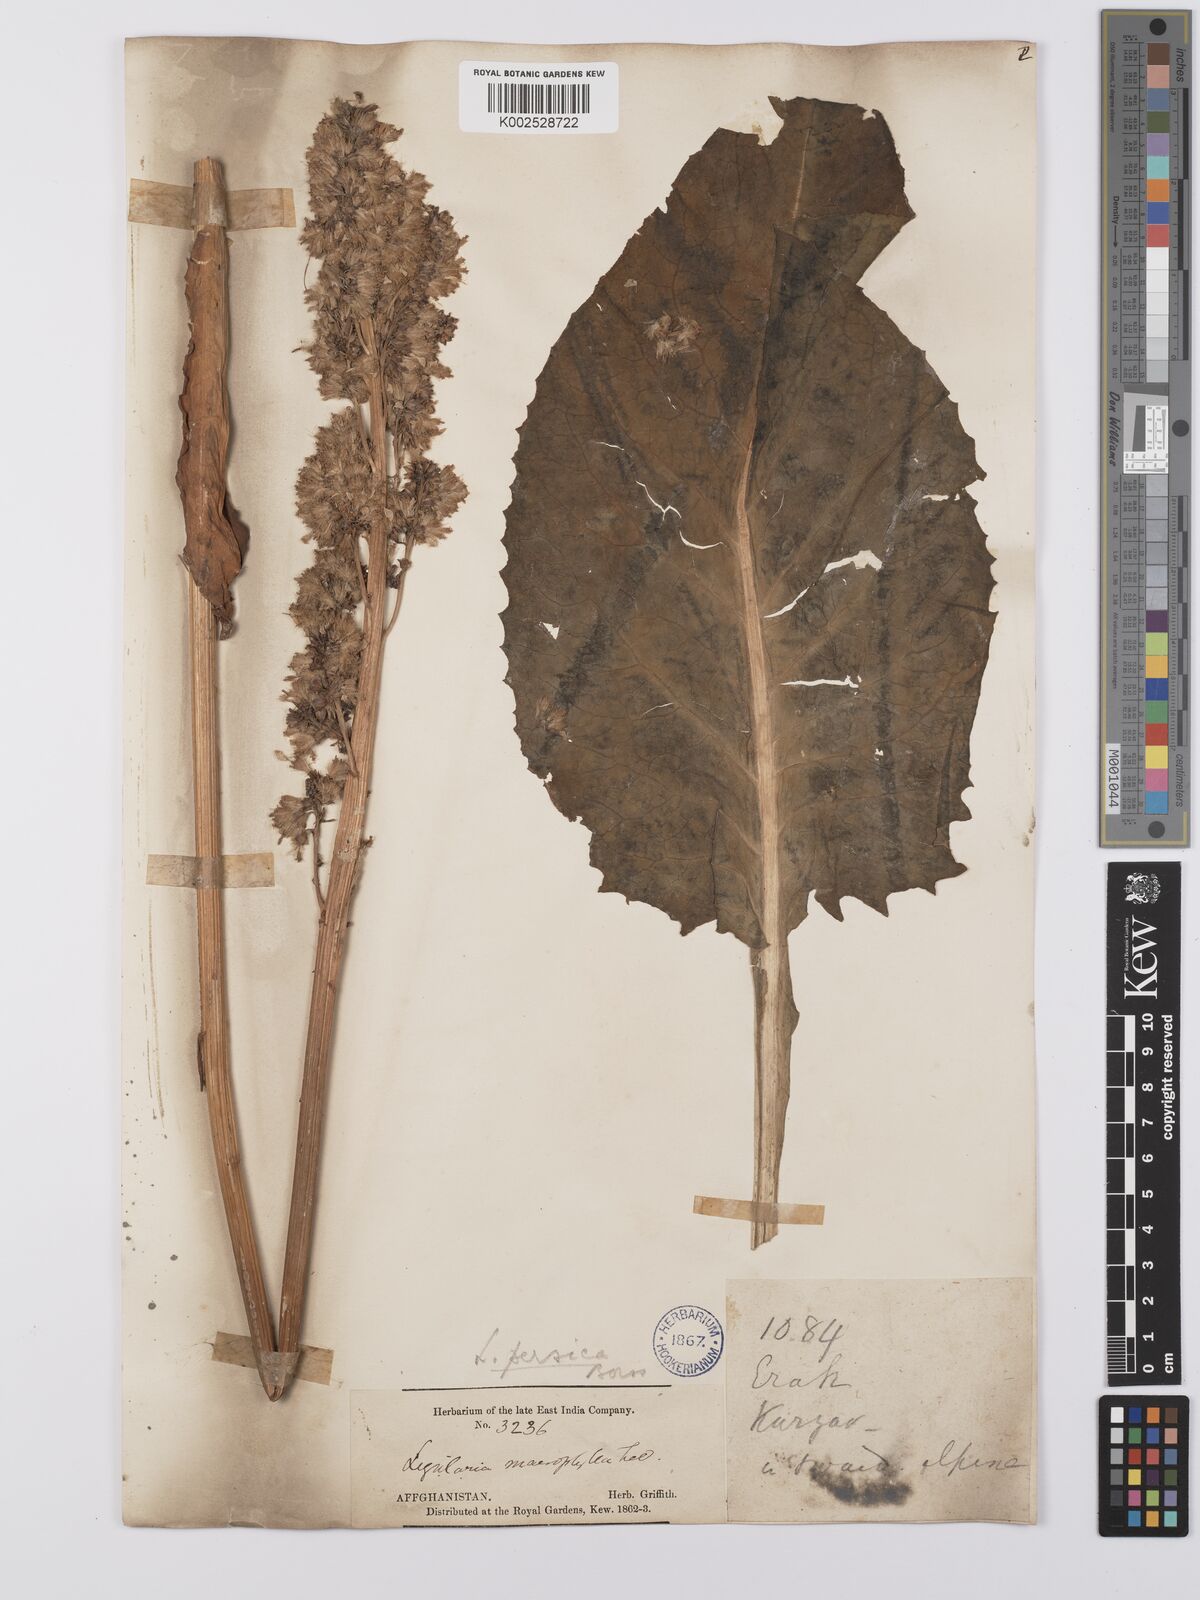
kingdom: Plantae
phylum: Tracheophyta
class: Magnoliopsida
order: Asterales
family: Asteraceae
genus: Ligularia
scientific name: Ligularia afghanica
